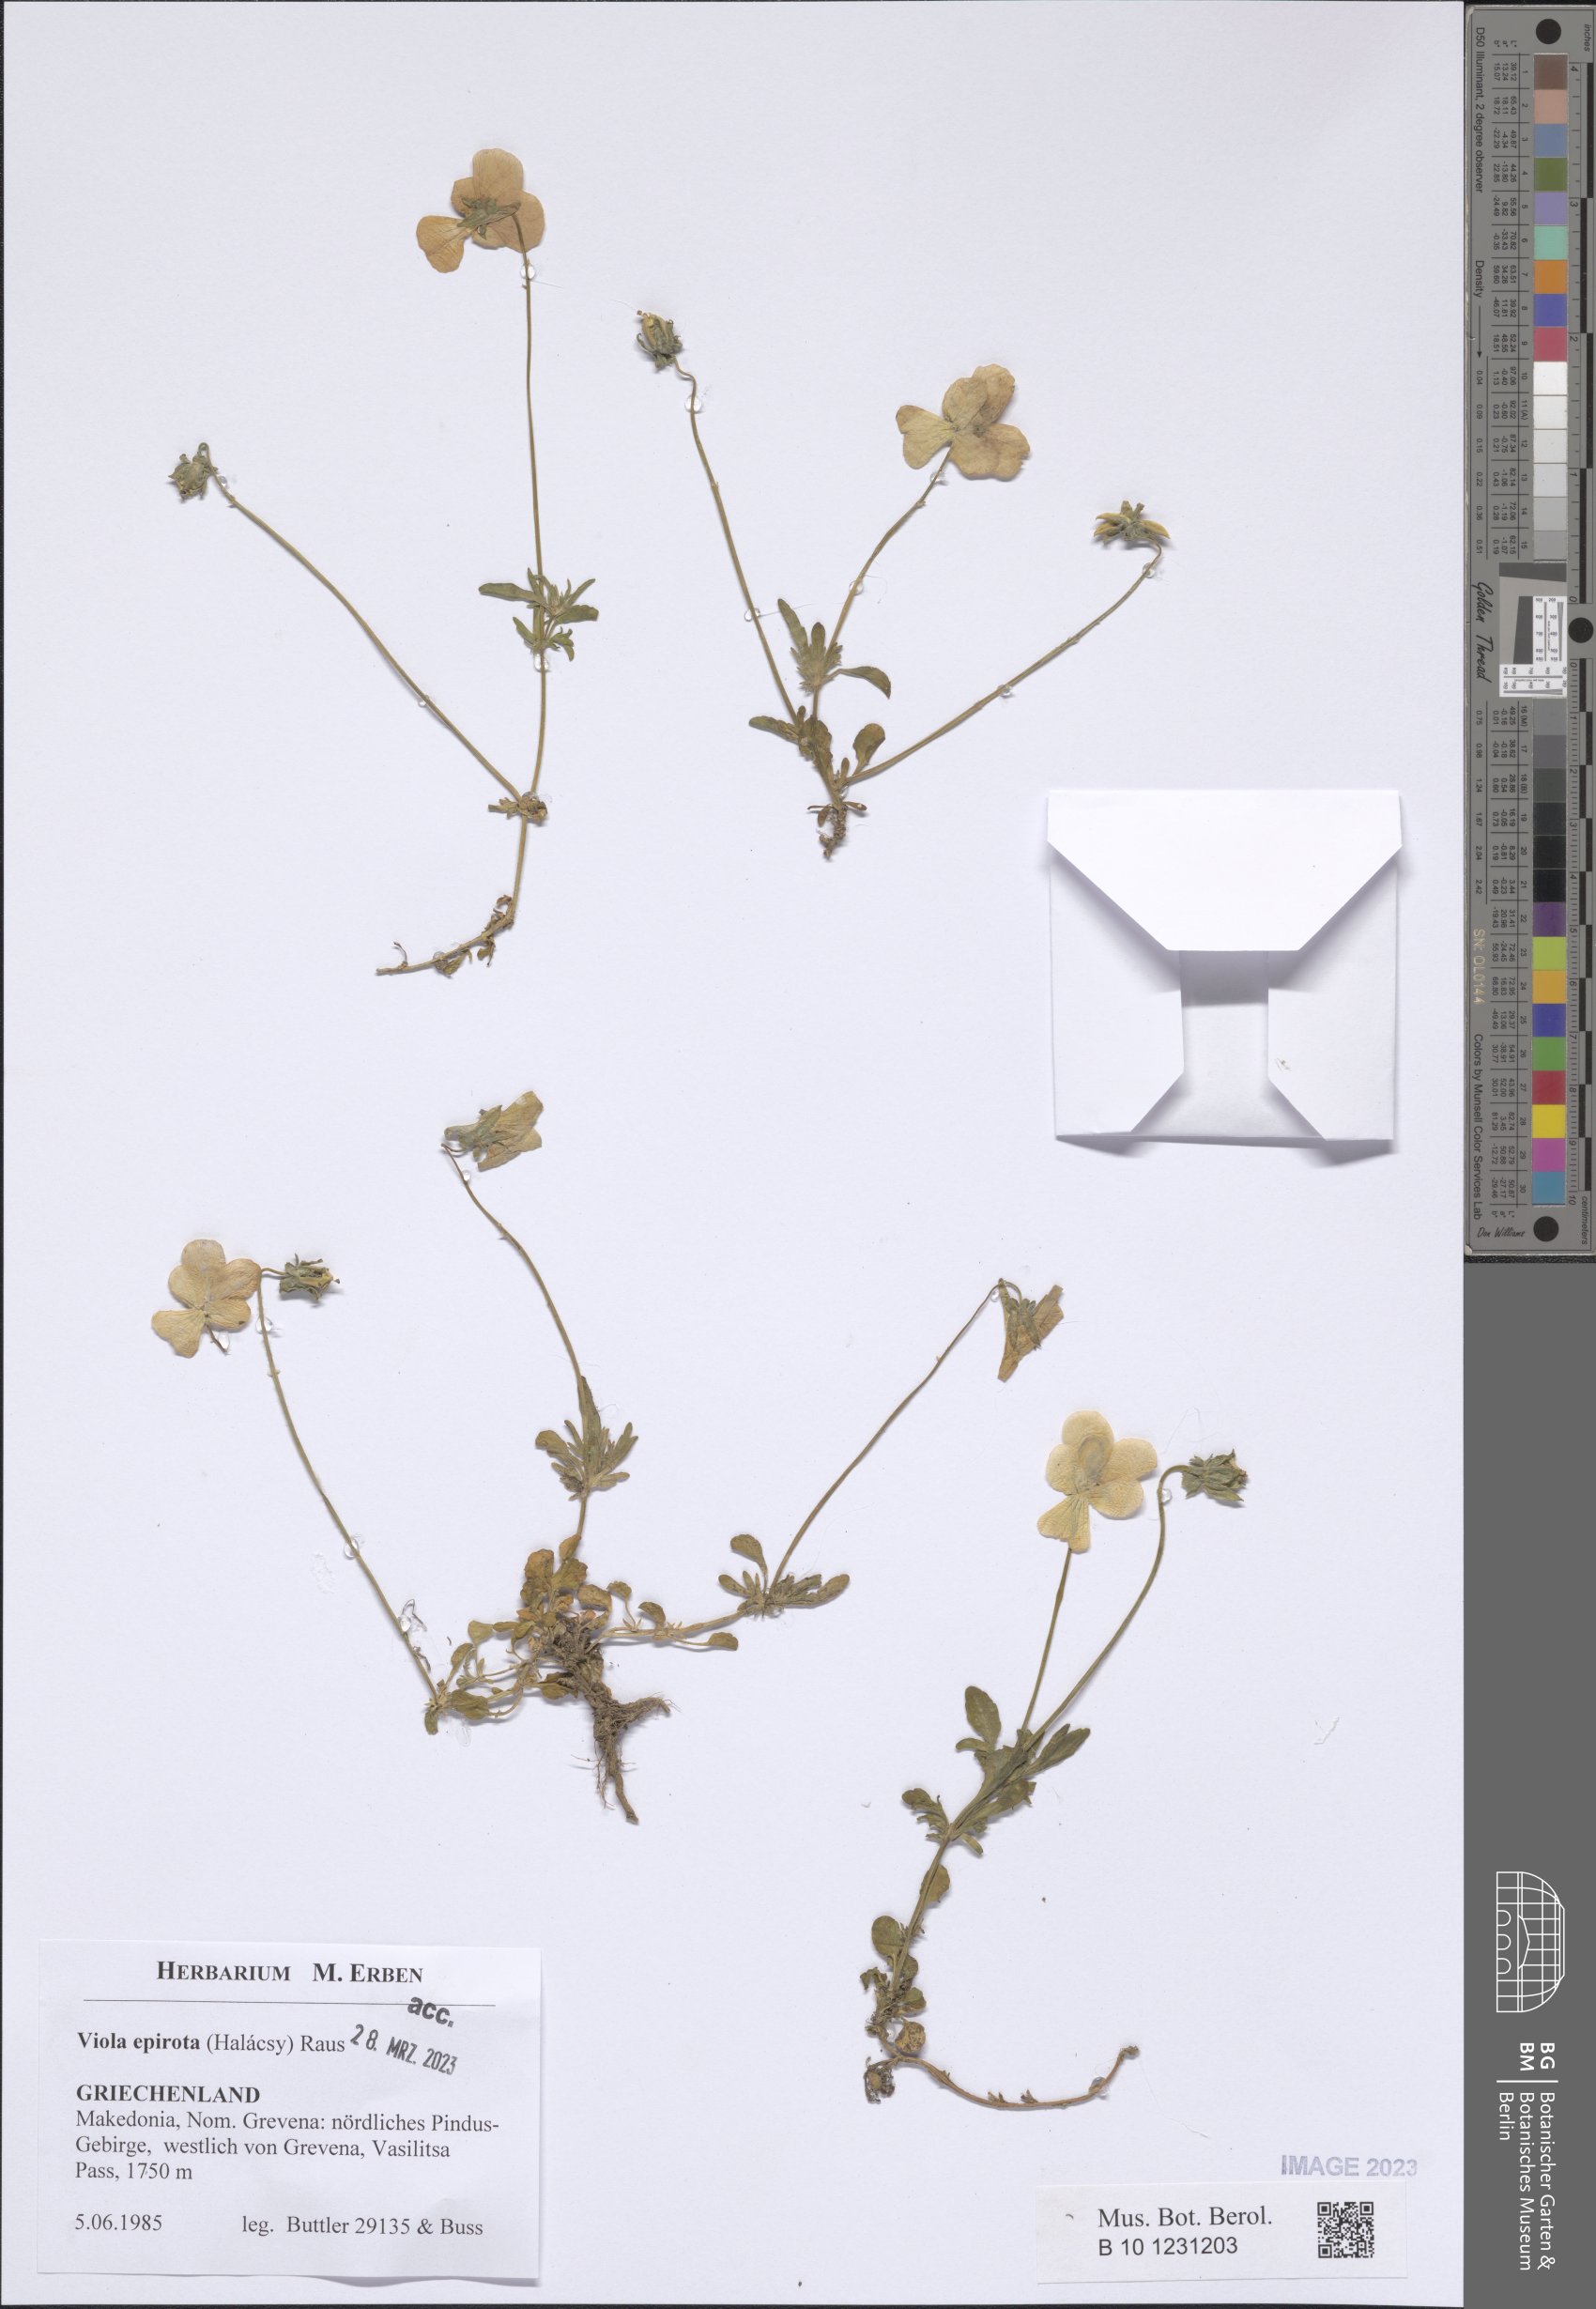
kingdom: Plantae
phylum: Tracheophyta
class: Magnoliopsida
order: Malpighiales
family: Violaceae
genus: Viola
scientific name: Viola epirota
